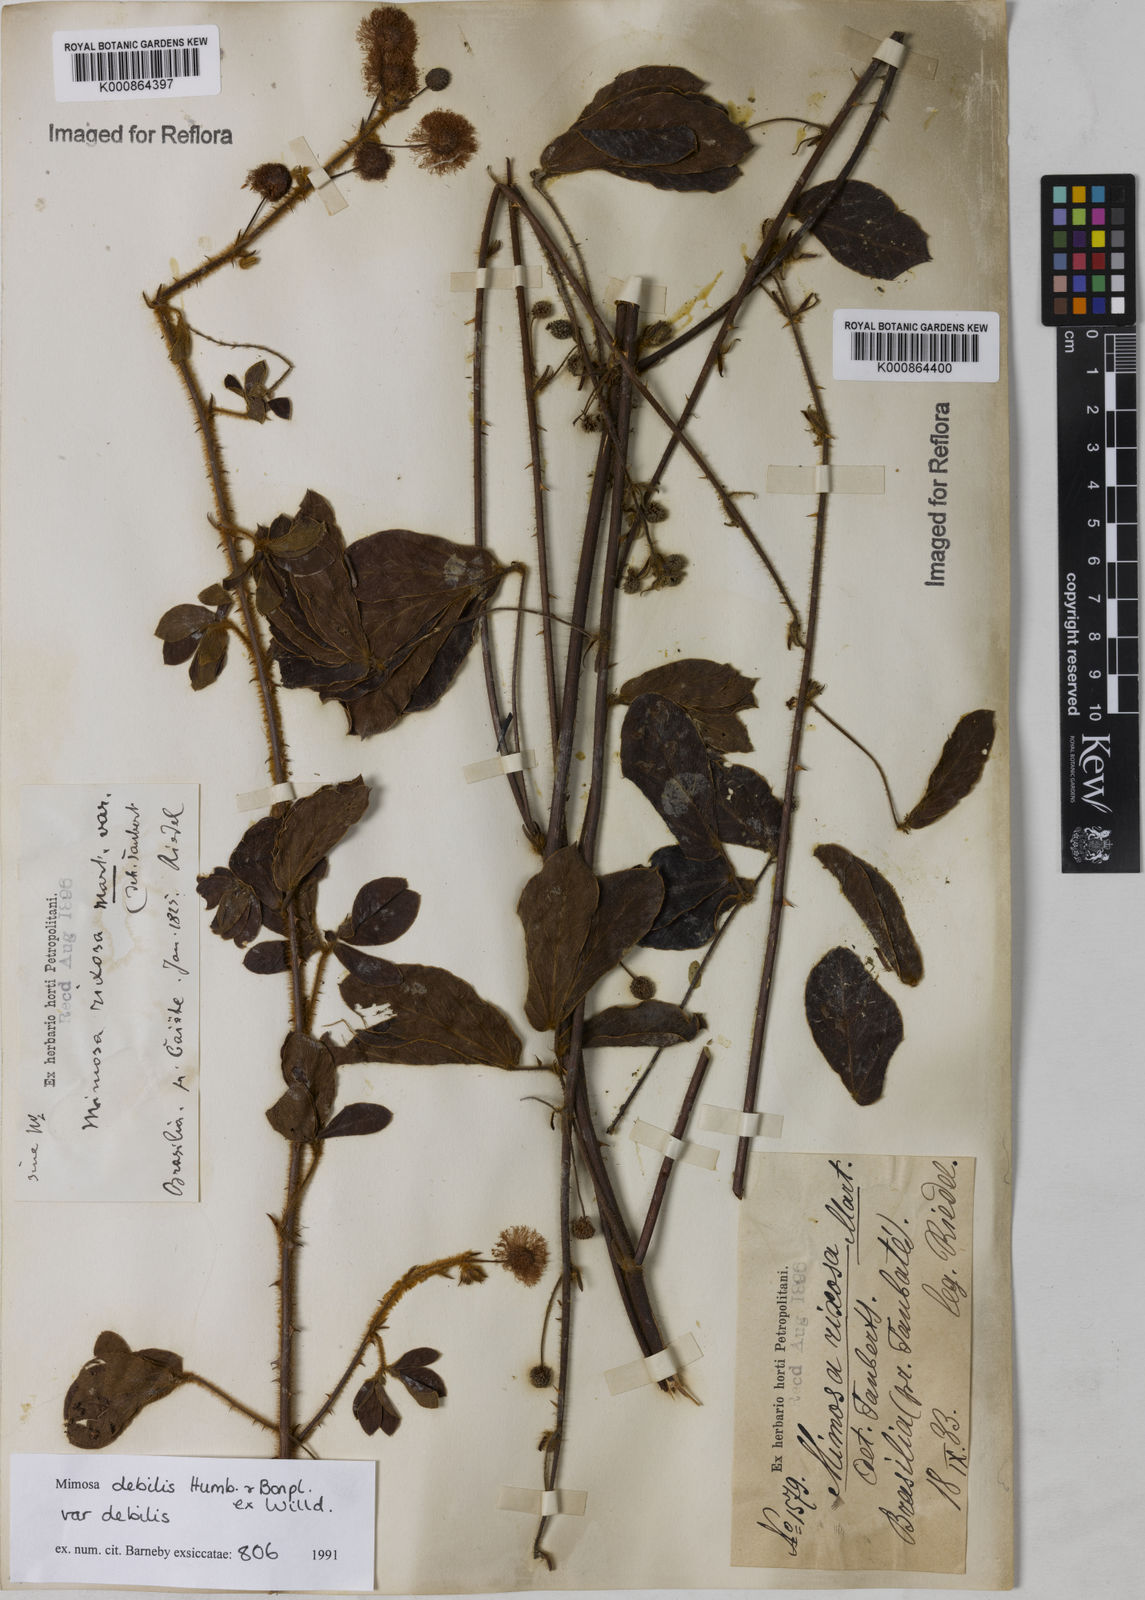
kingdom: Plantae
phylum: Tracheophyta
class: Magnoliopsida
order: Fabales
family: Fabaceae
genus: Mimosa
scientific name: Mimosa debilis
